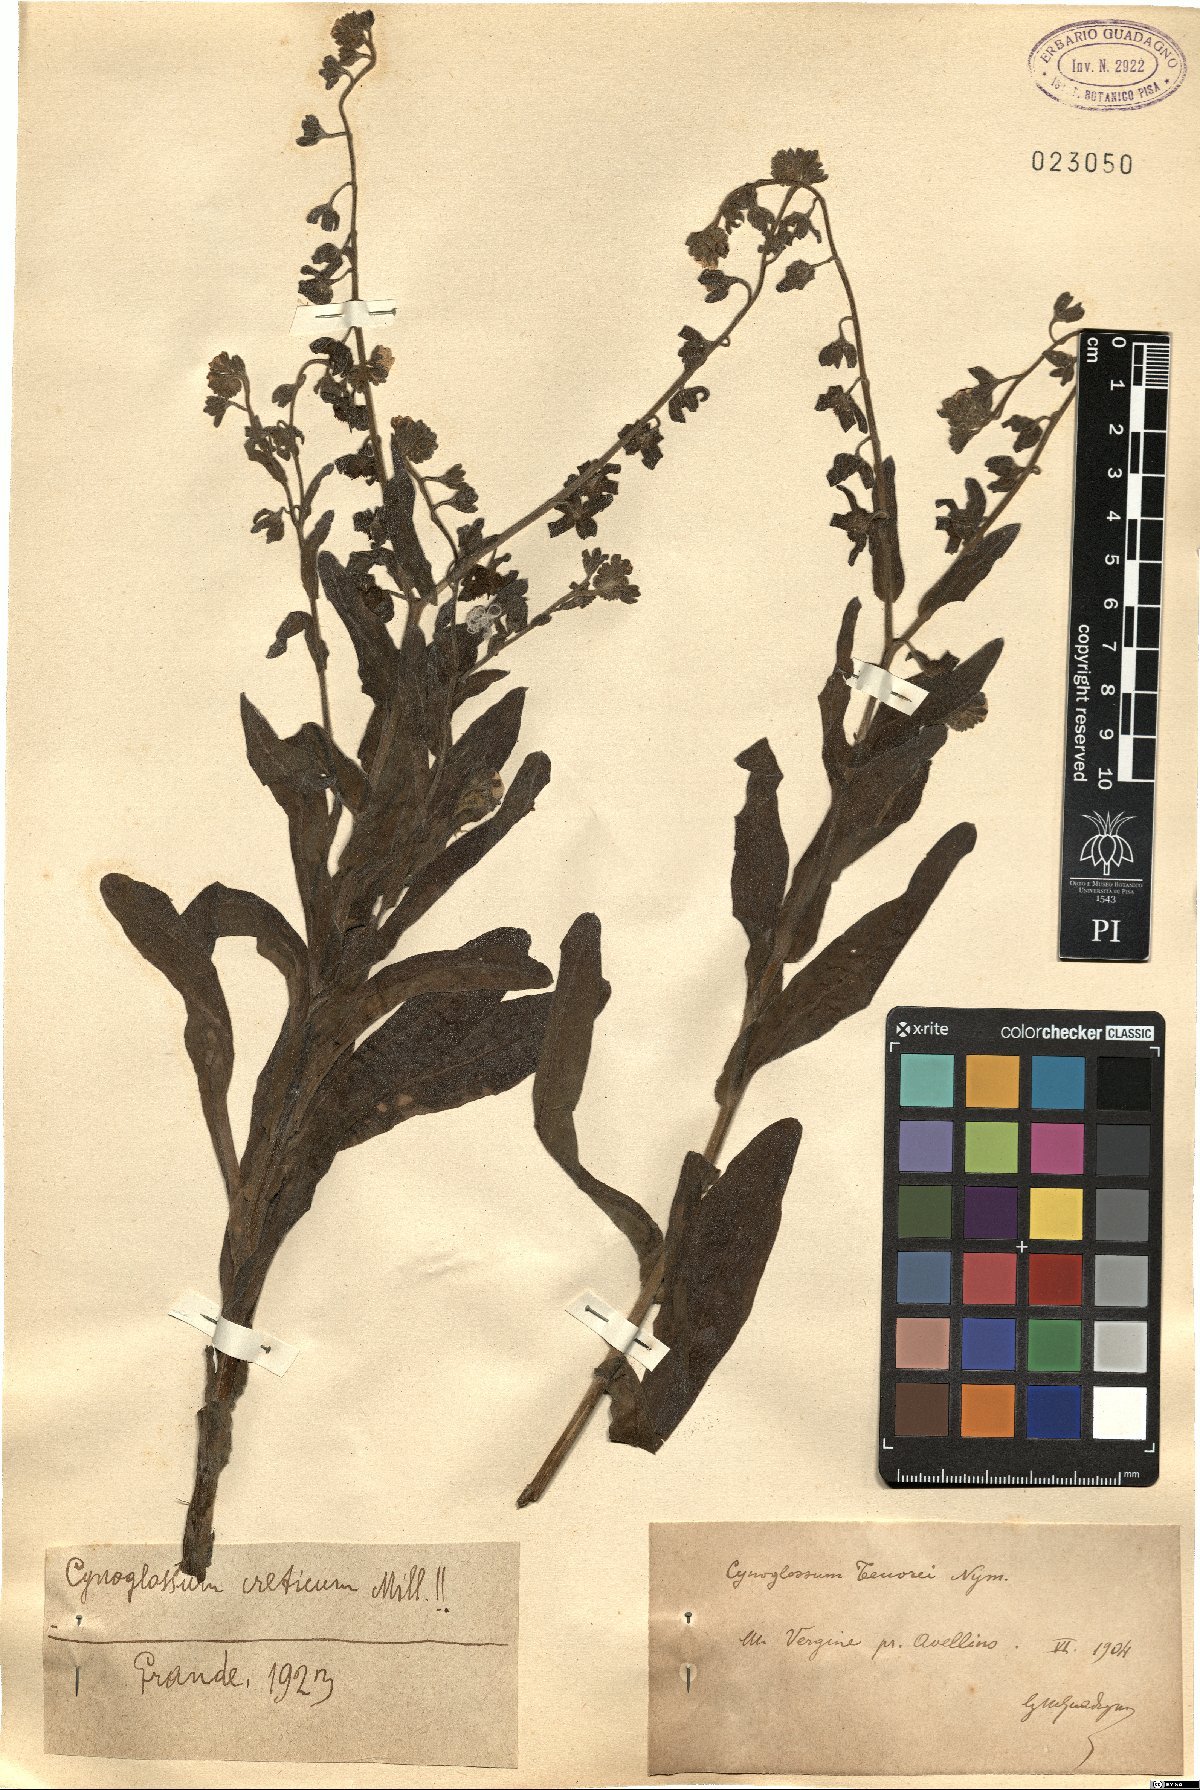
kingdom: Plantae
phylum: Tracheophyta
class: Magnoliopsida
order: Boraginales
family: Boraginaceae
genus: Cynoglossum
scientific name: Cynoglossum creticum
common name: Blue hound's tongue
